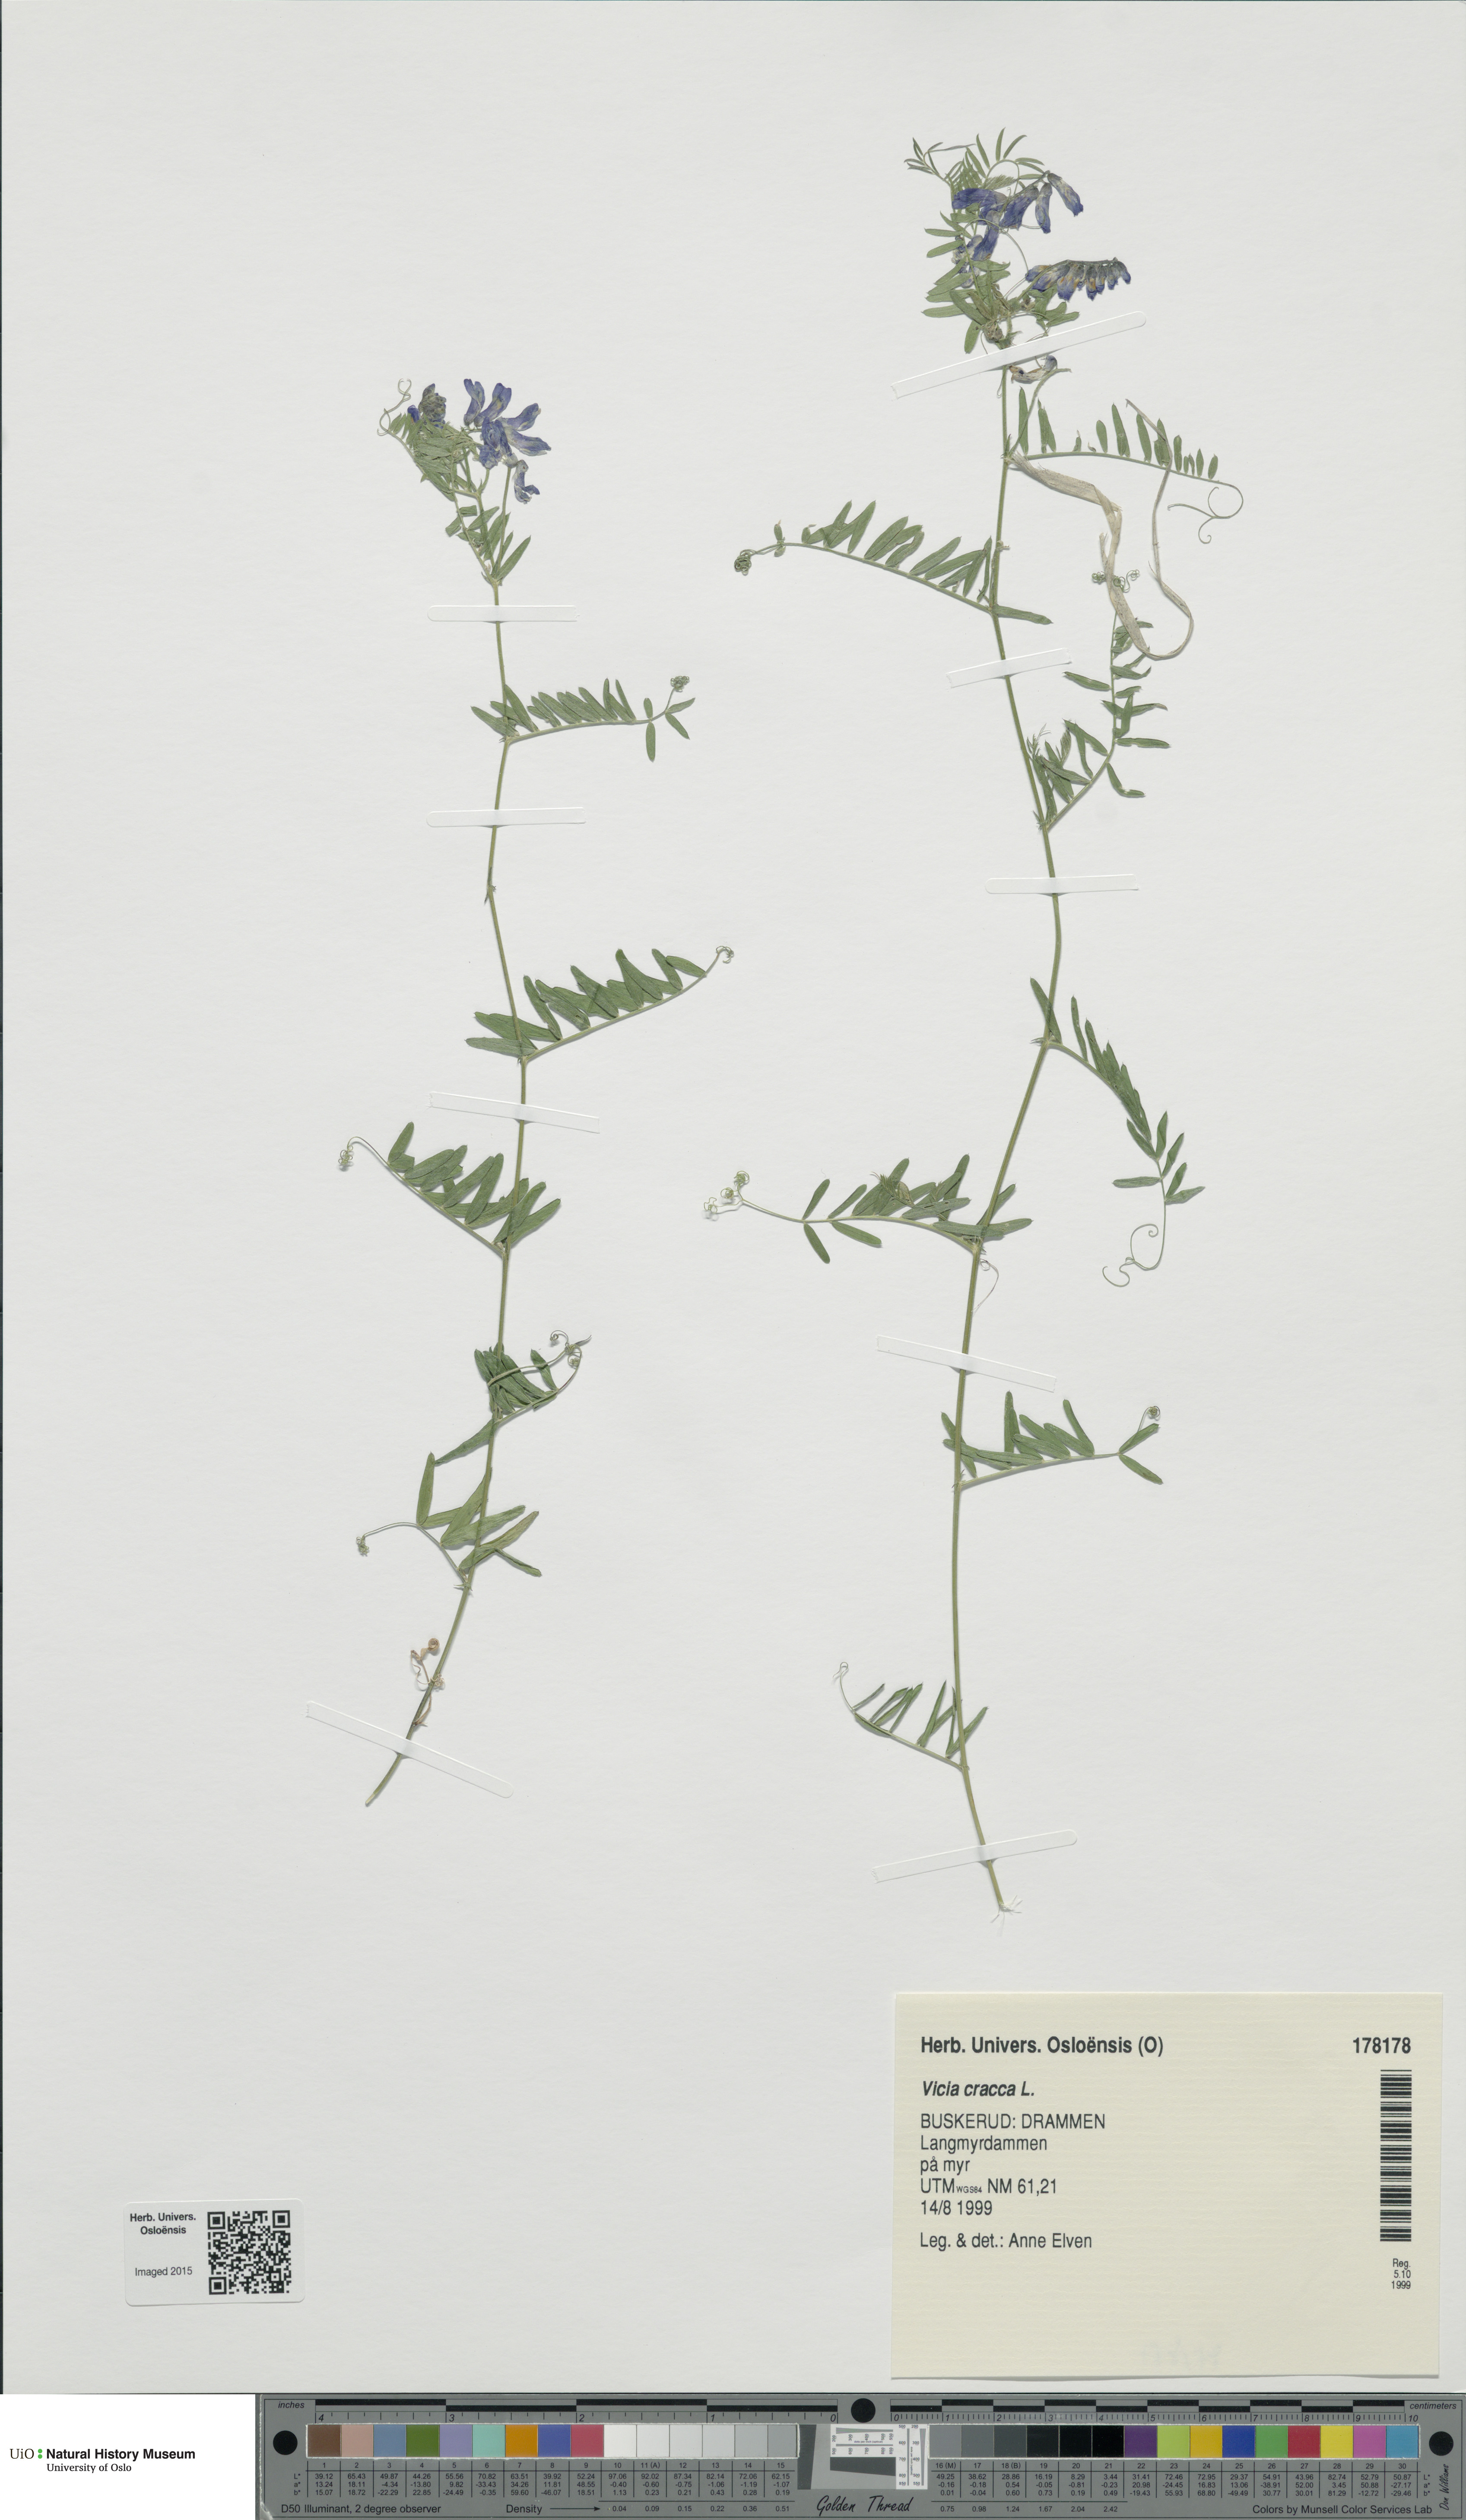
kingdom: Plantae
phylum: Tracheophyta
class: Magnoliopsida
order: Fabales
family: Fabaceae
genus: Vicia
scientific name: Vicia cracca
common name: Bird vetch
